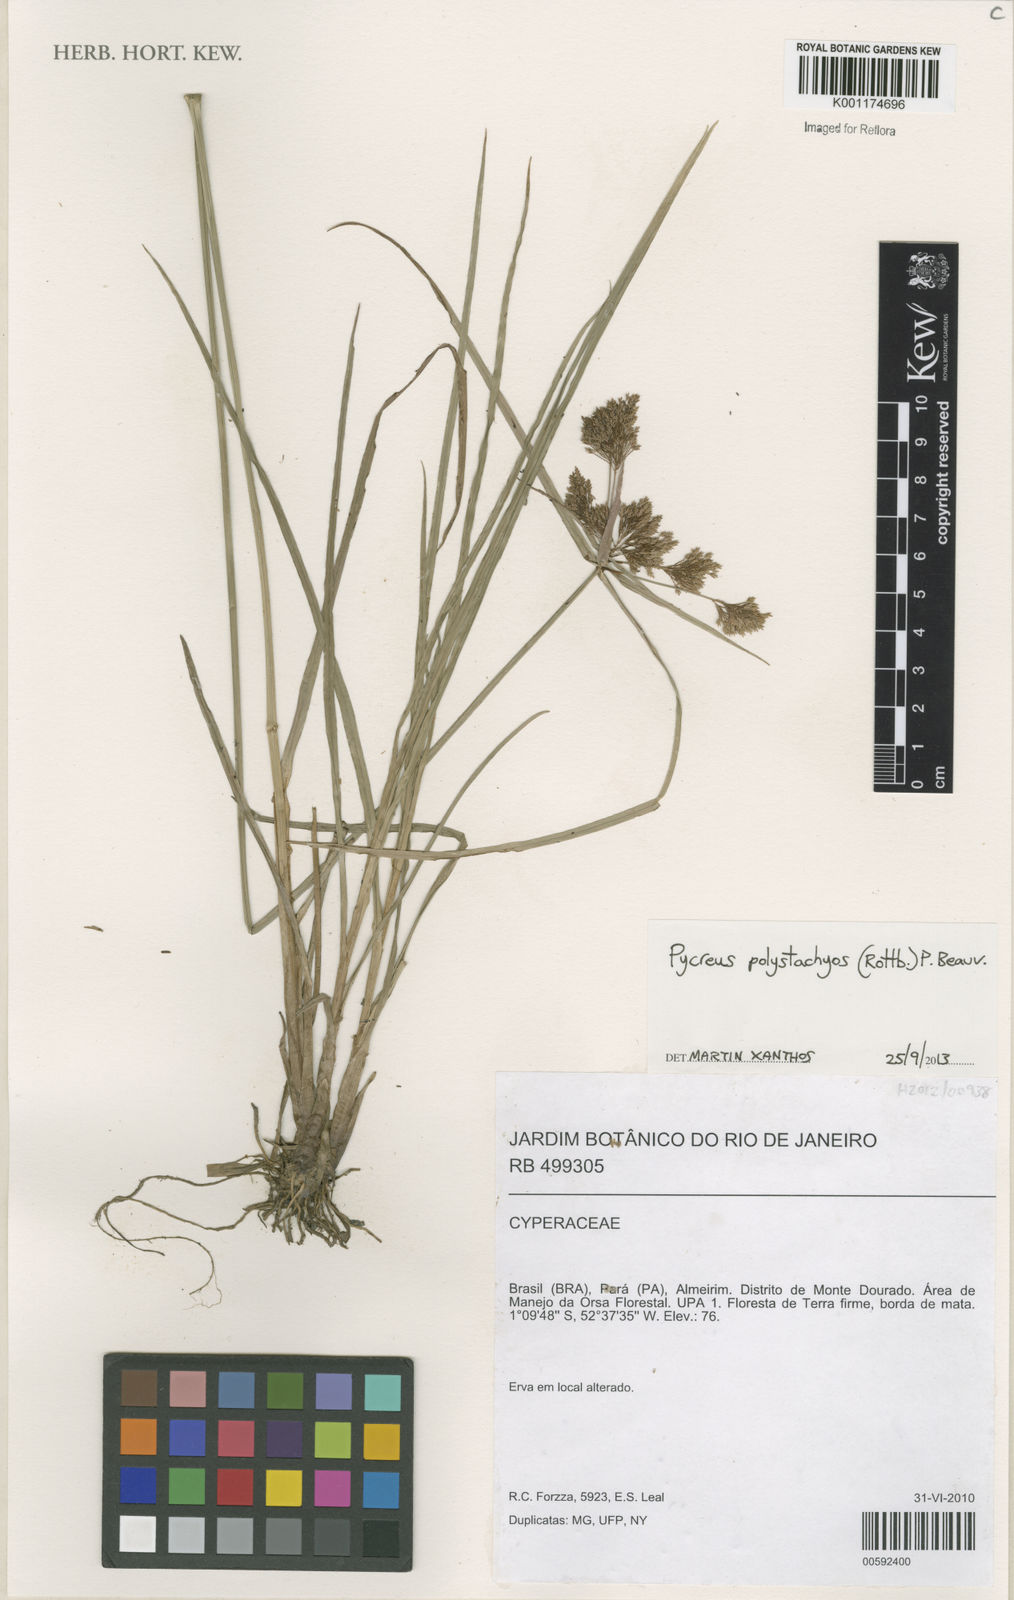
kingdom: Plantae
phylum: Tracheophyta
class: Liliopsida
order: Poales
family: Cyperaceae
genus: Cyperus
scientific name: Cyperus polystachyos
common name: Bunchy flat sedge
